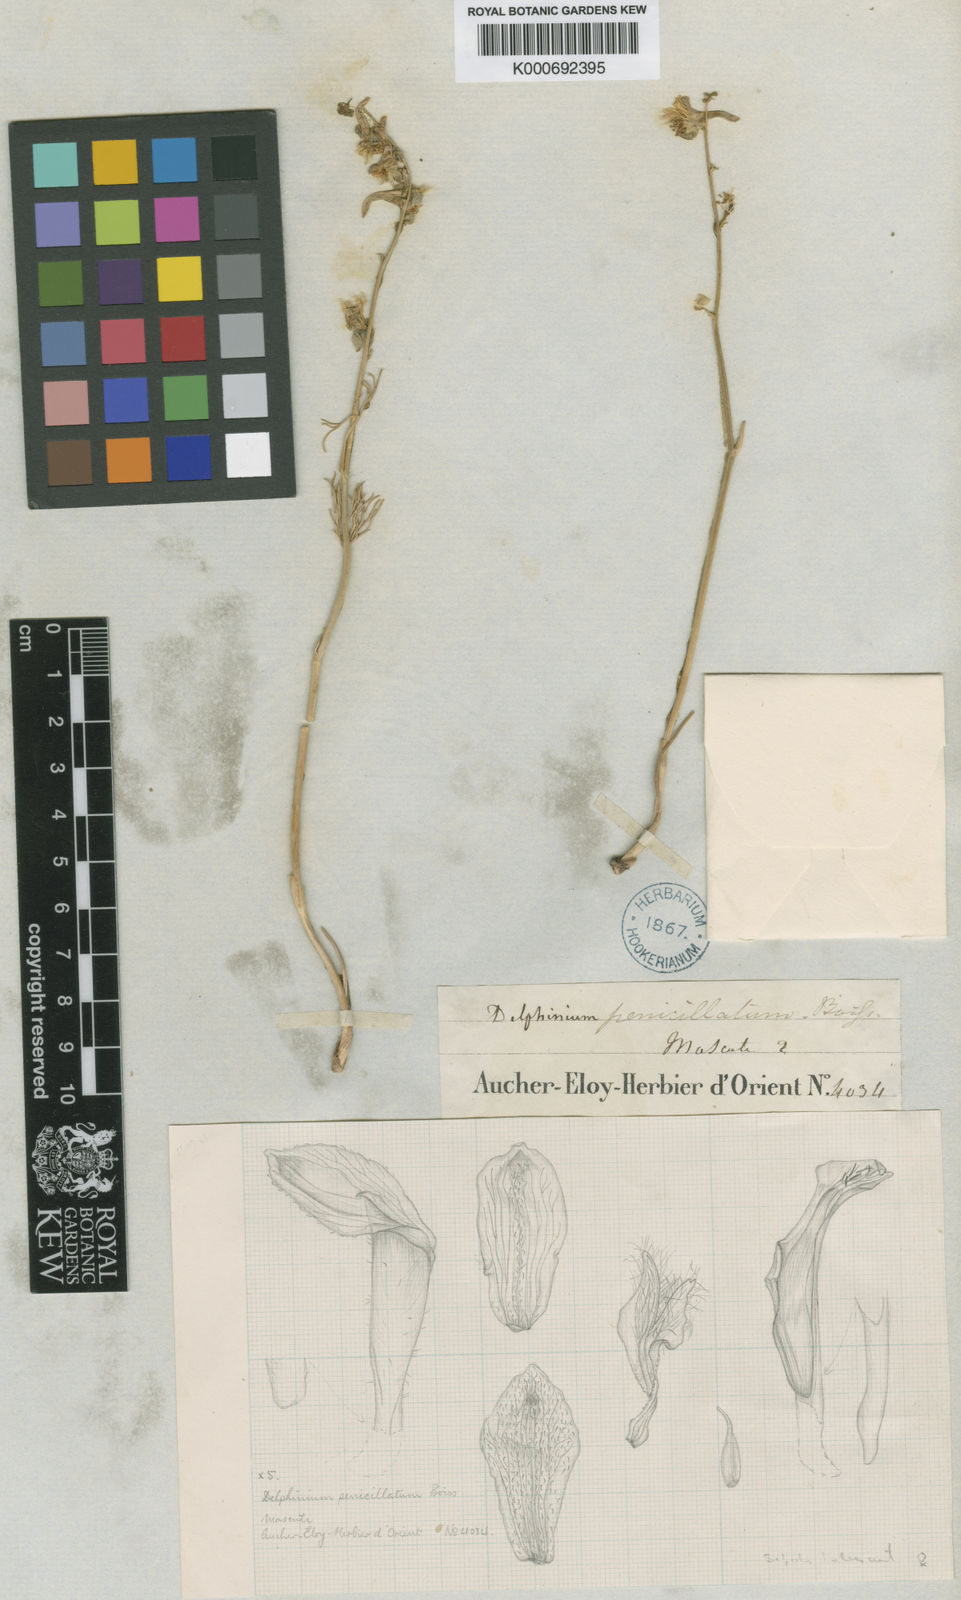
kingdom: Plantae
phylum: Tracheophyta
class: Magnoliopsida
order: Ranunculales
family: Ranunculaceae
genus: Delphinium
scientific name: Delphinium penicillatum
